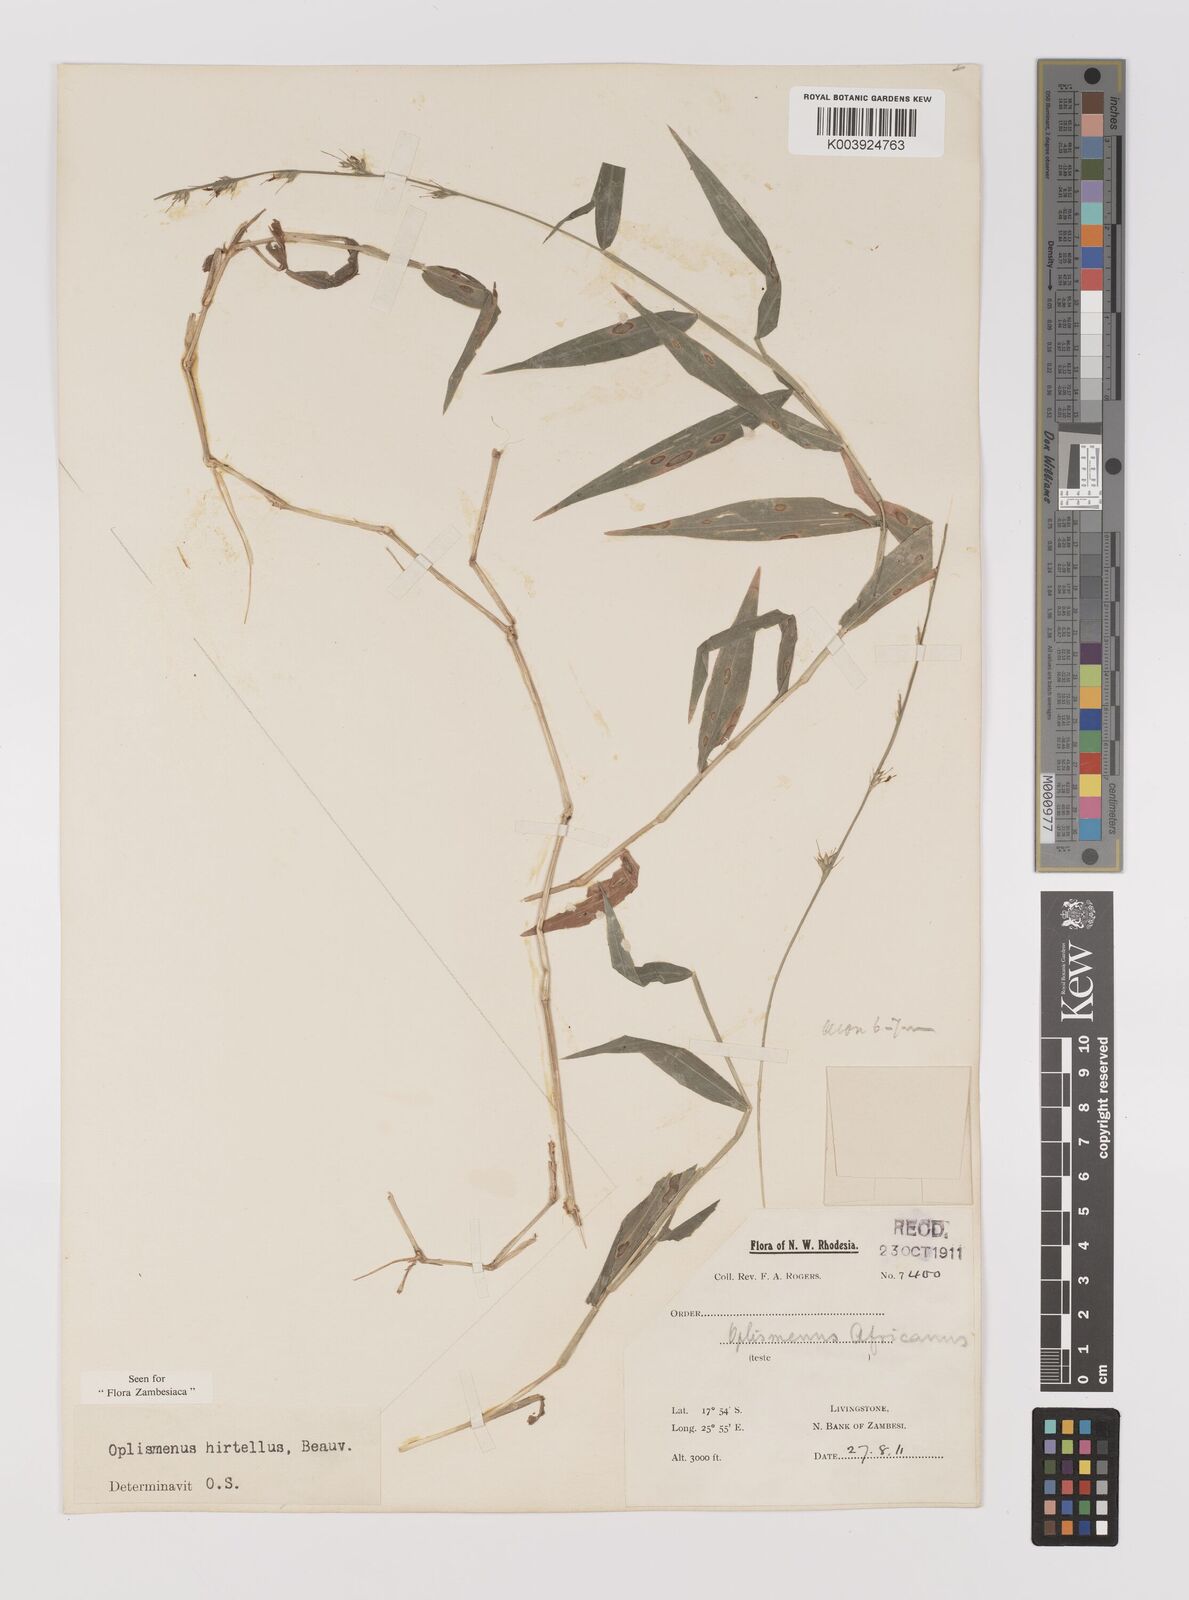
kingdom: Plantae
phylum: Tracheophyta
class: Liliopsida
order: Poales
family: Poaceae
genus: Oplismenus
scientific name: Oplismenus hirtellus
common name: Basketgrass
